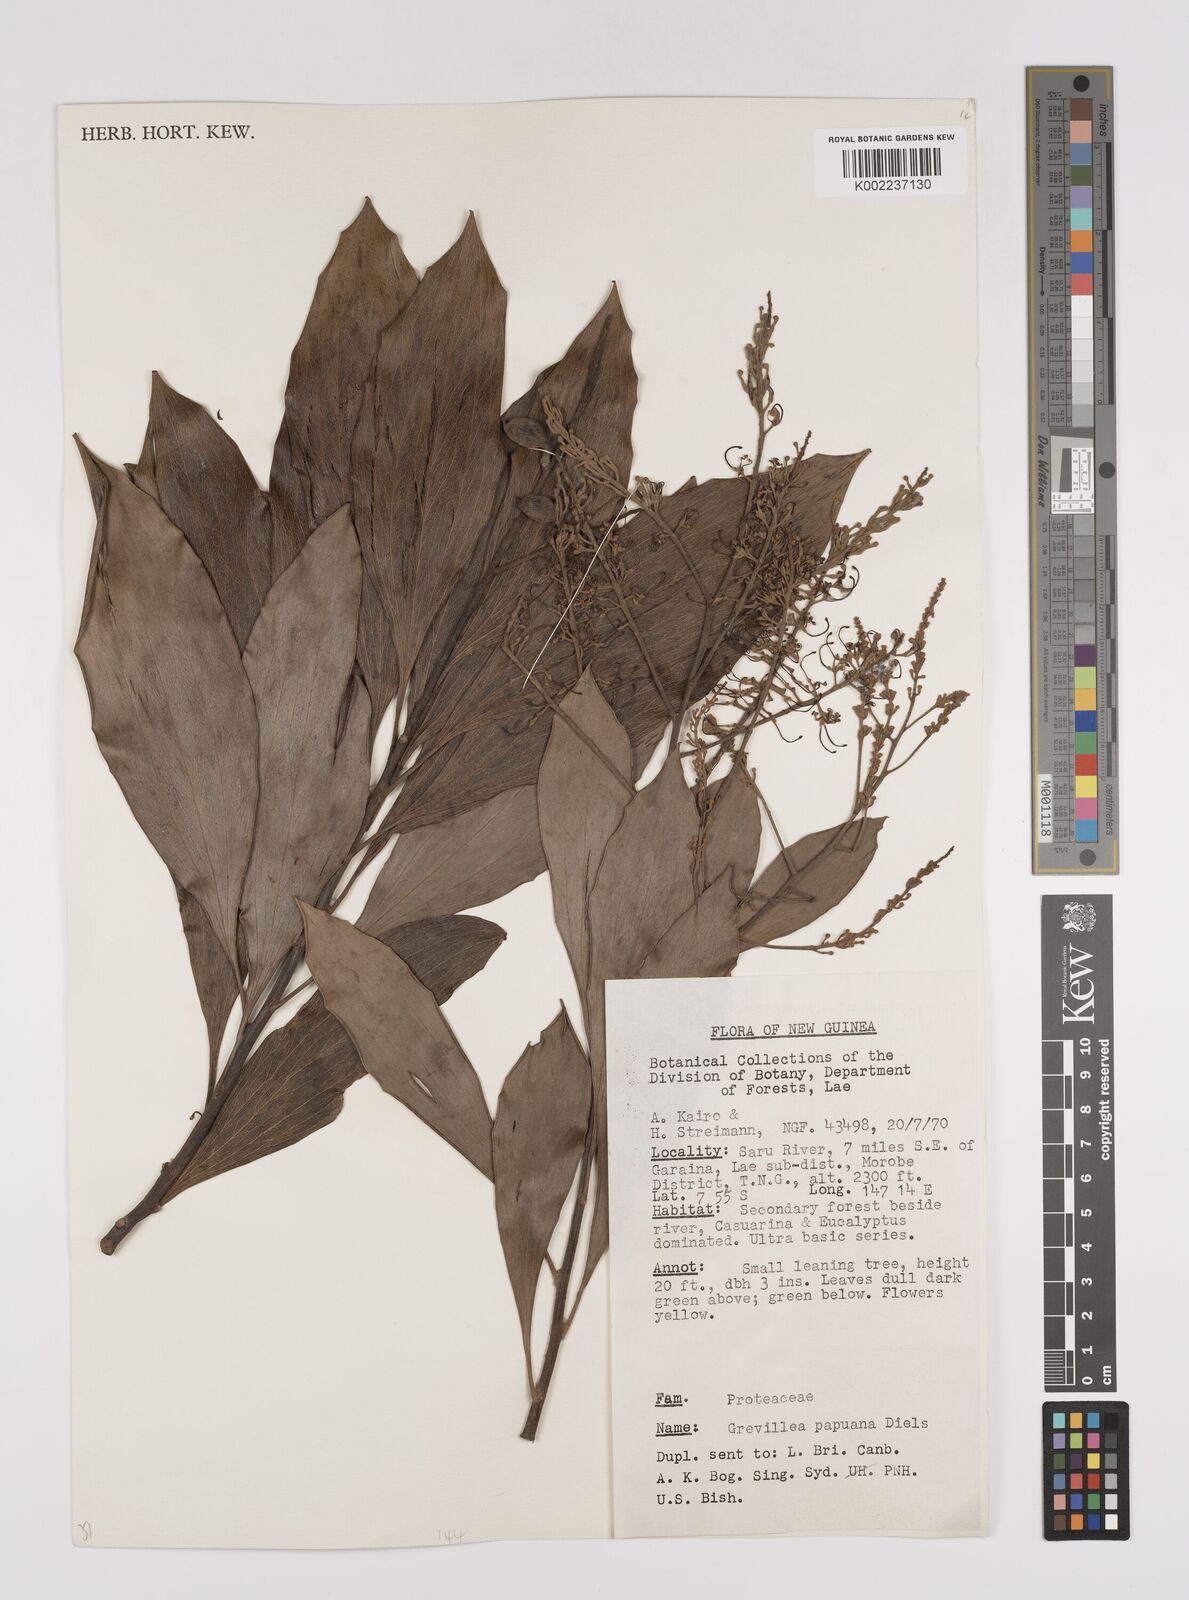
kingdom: Plantae
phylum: Tracheophyta
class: Magnoliopsida
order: Proteales
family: Proteaceae
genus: Grevillea
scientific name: Grevillea papuana
